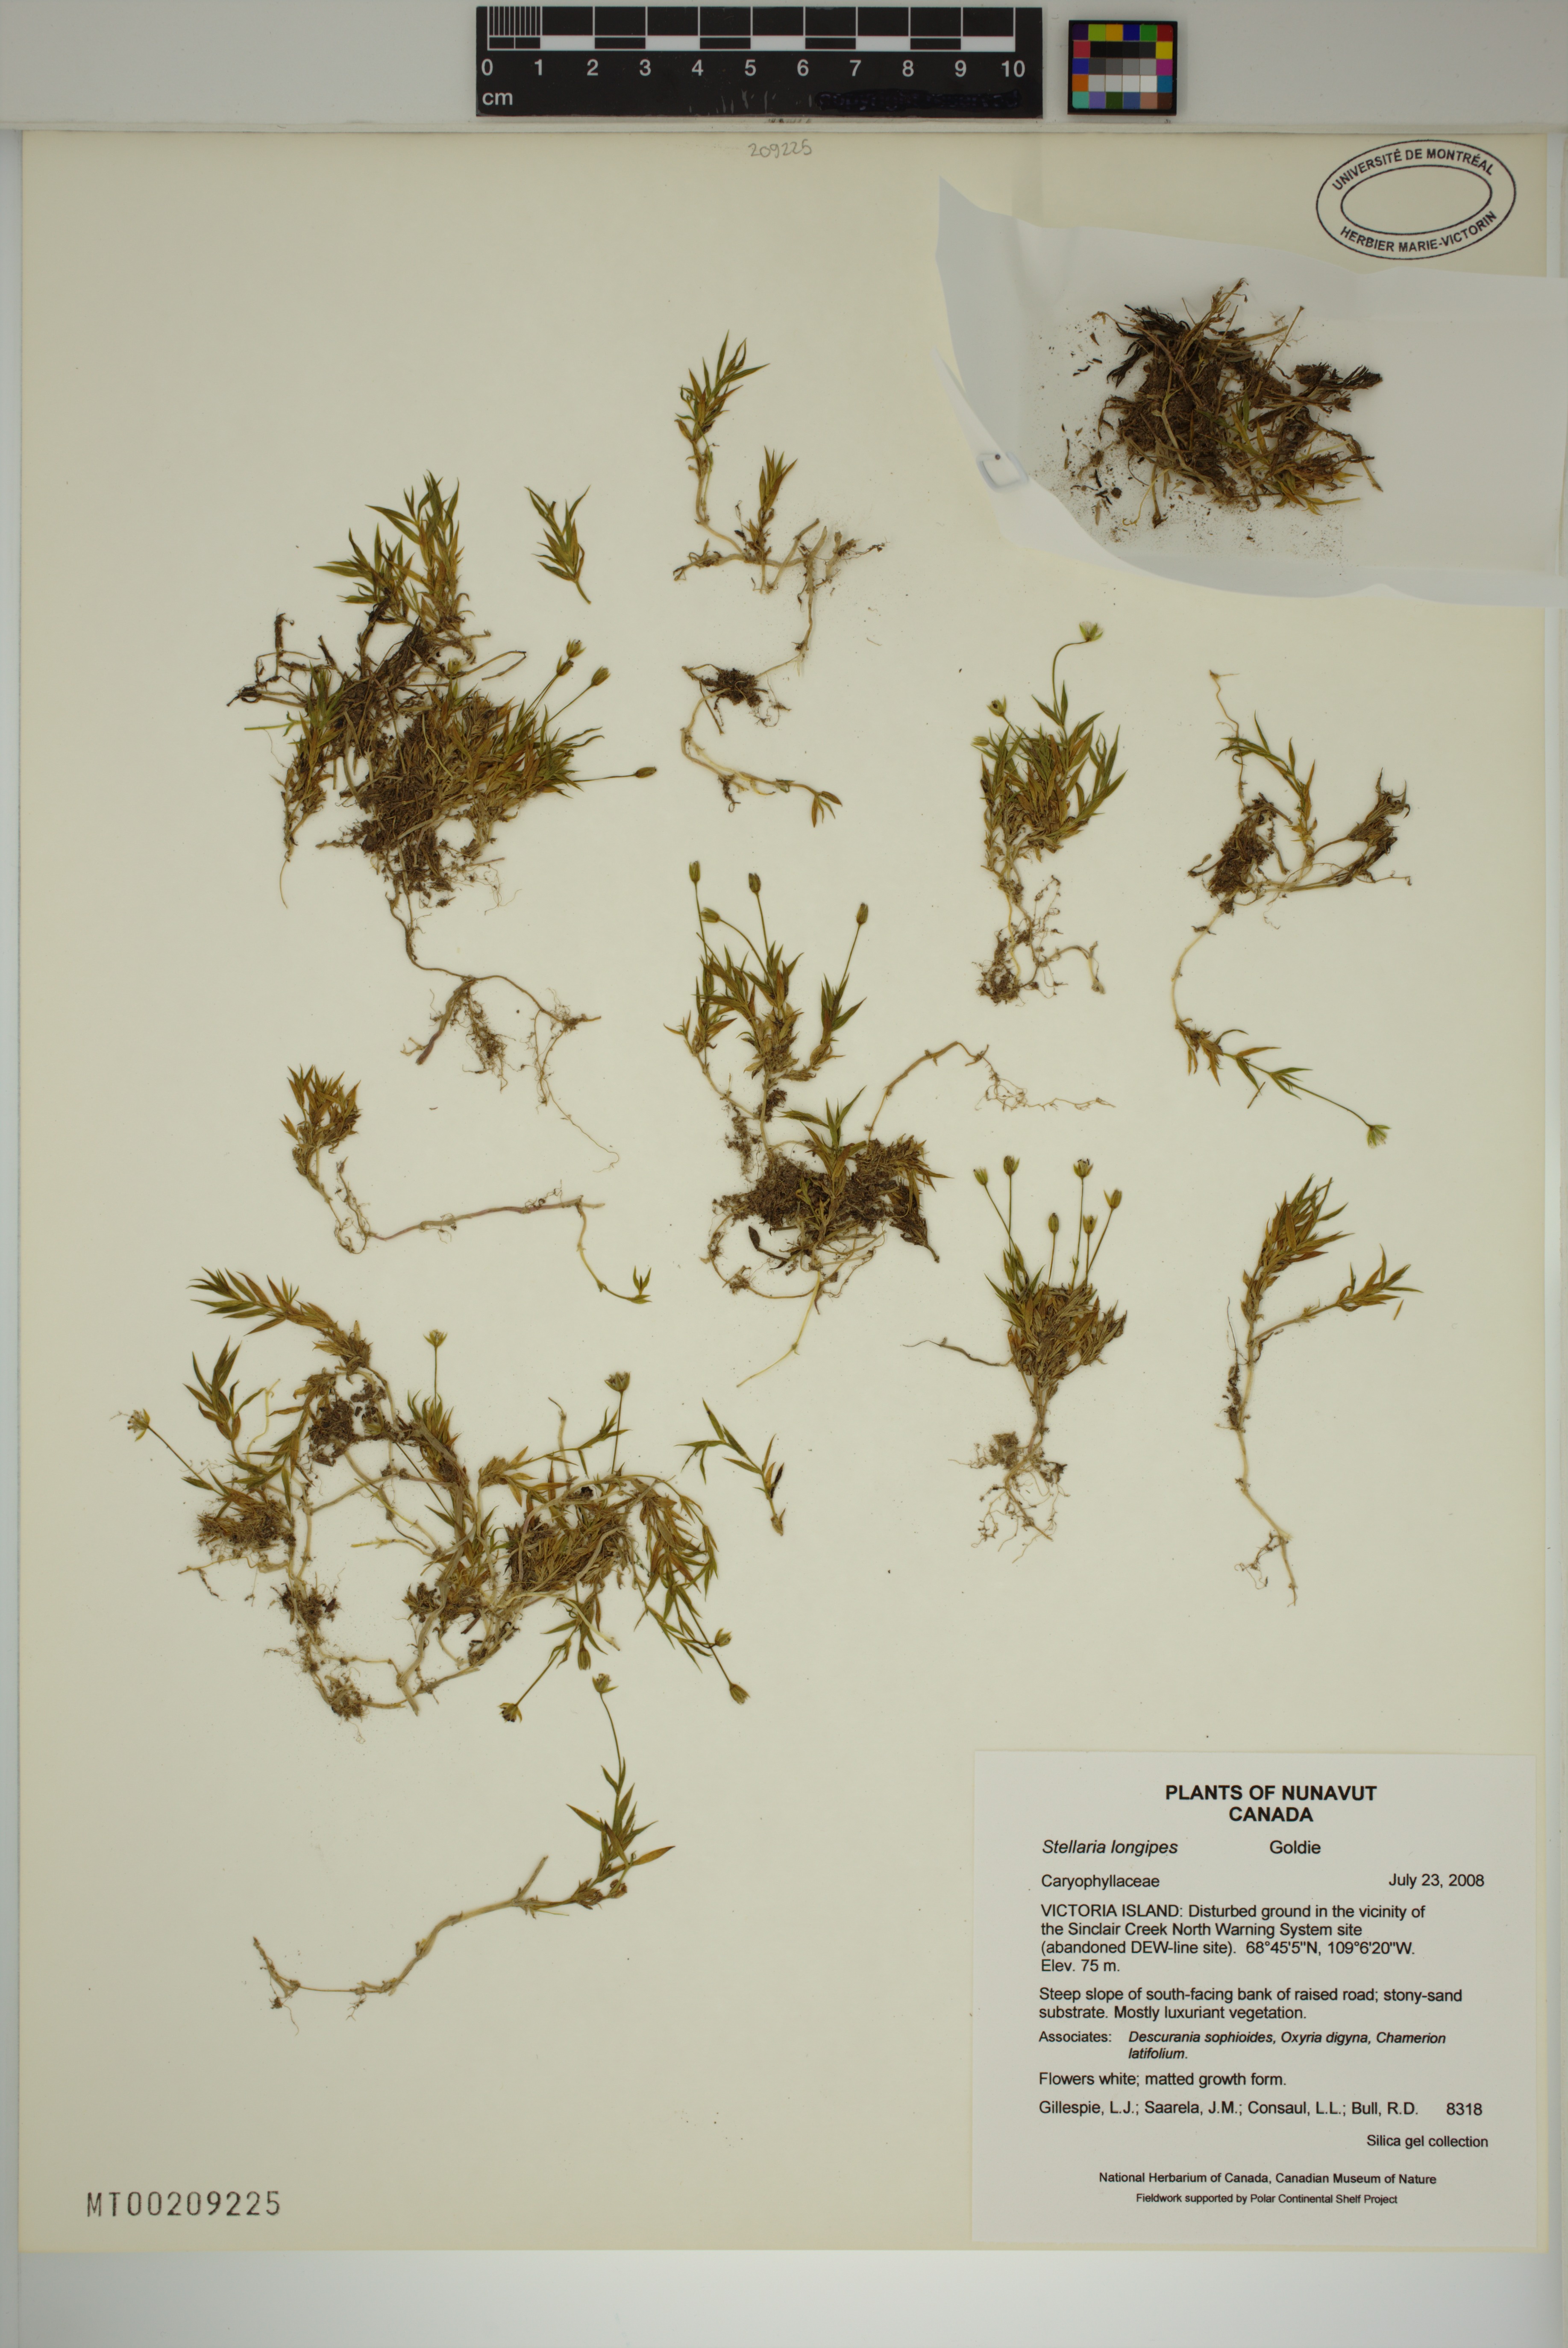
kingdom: Plantae
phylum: Tracheophyta
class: Magnoliopsida
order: Caryophyllales
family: Caryophyllaceae
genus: Stellaria
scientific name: Stellaria longipes
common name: Goldie's starwort
